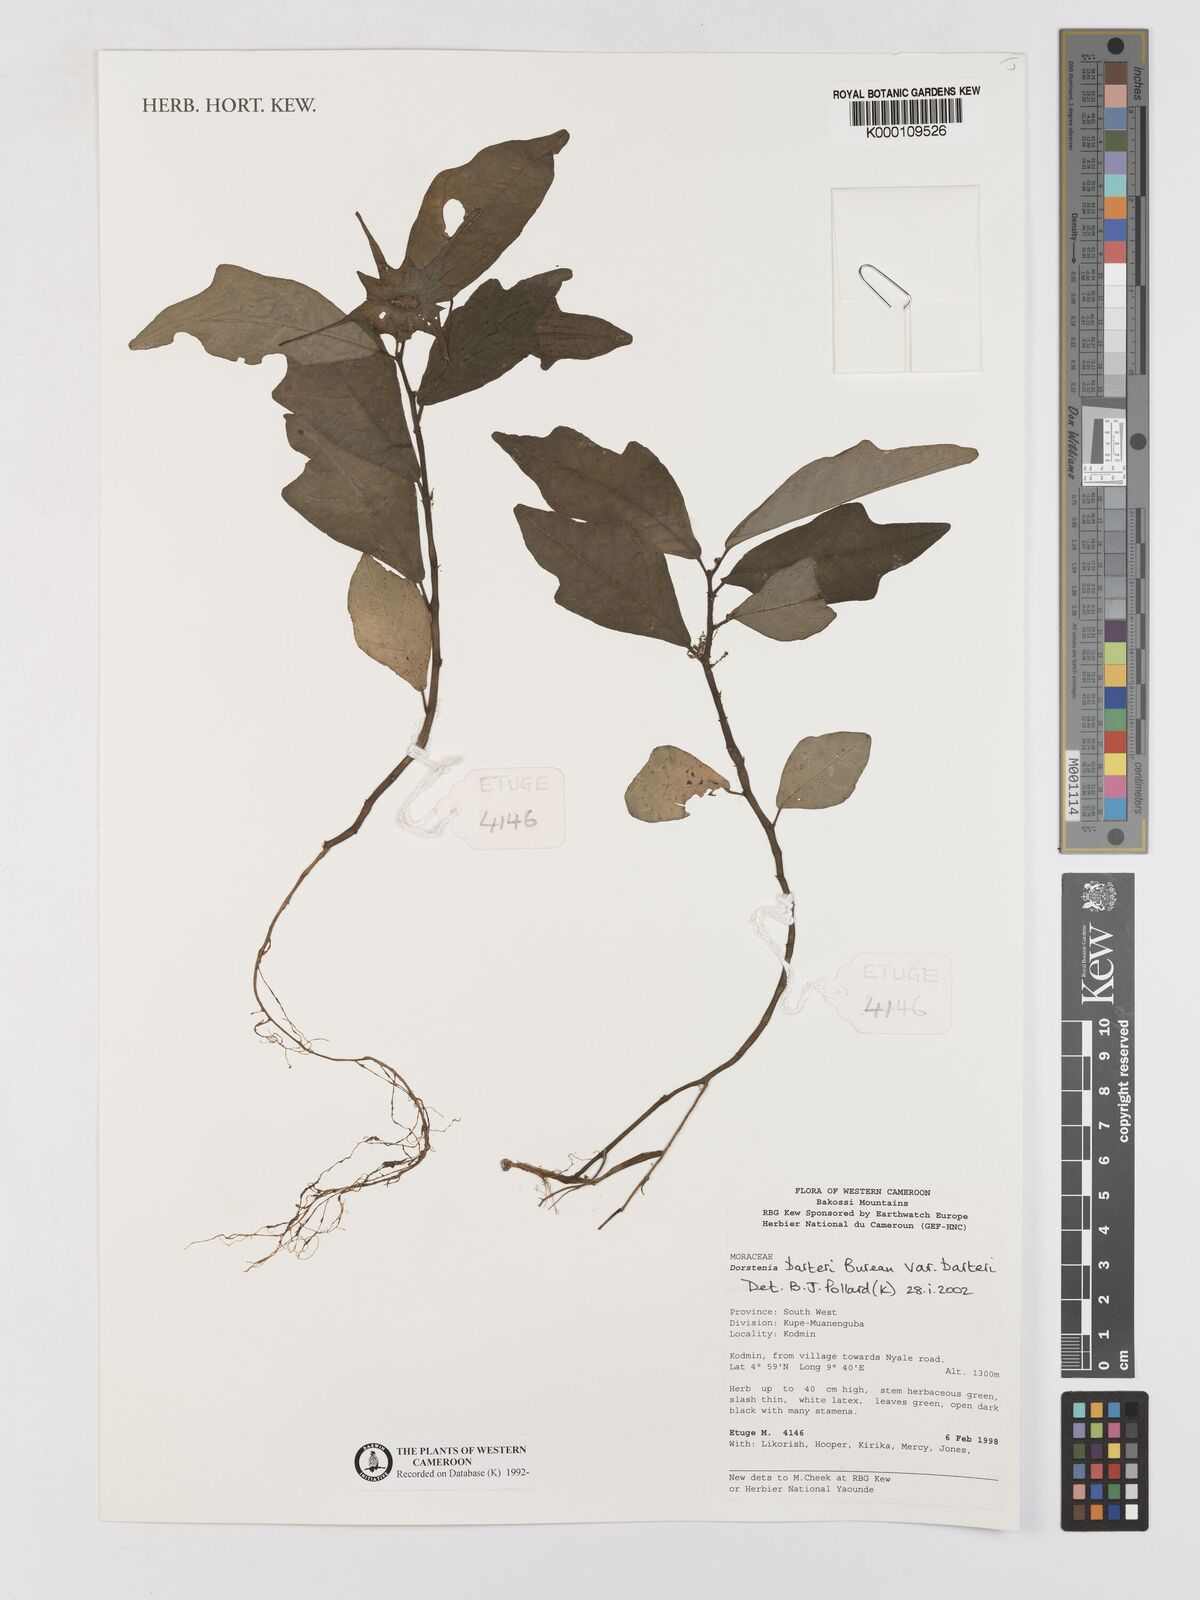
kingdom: Plantae
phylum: Tracheophyta
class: Magnoliopsida
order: Rosales
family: Moraceae
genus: Dorstenia
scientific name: Dorstenia barteri
